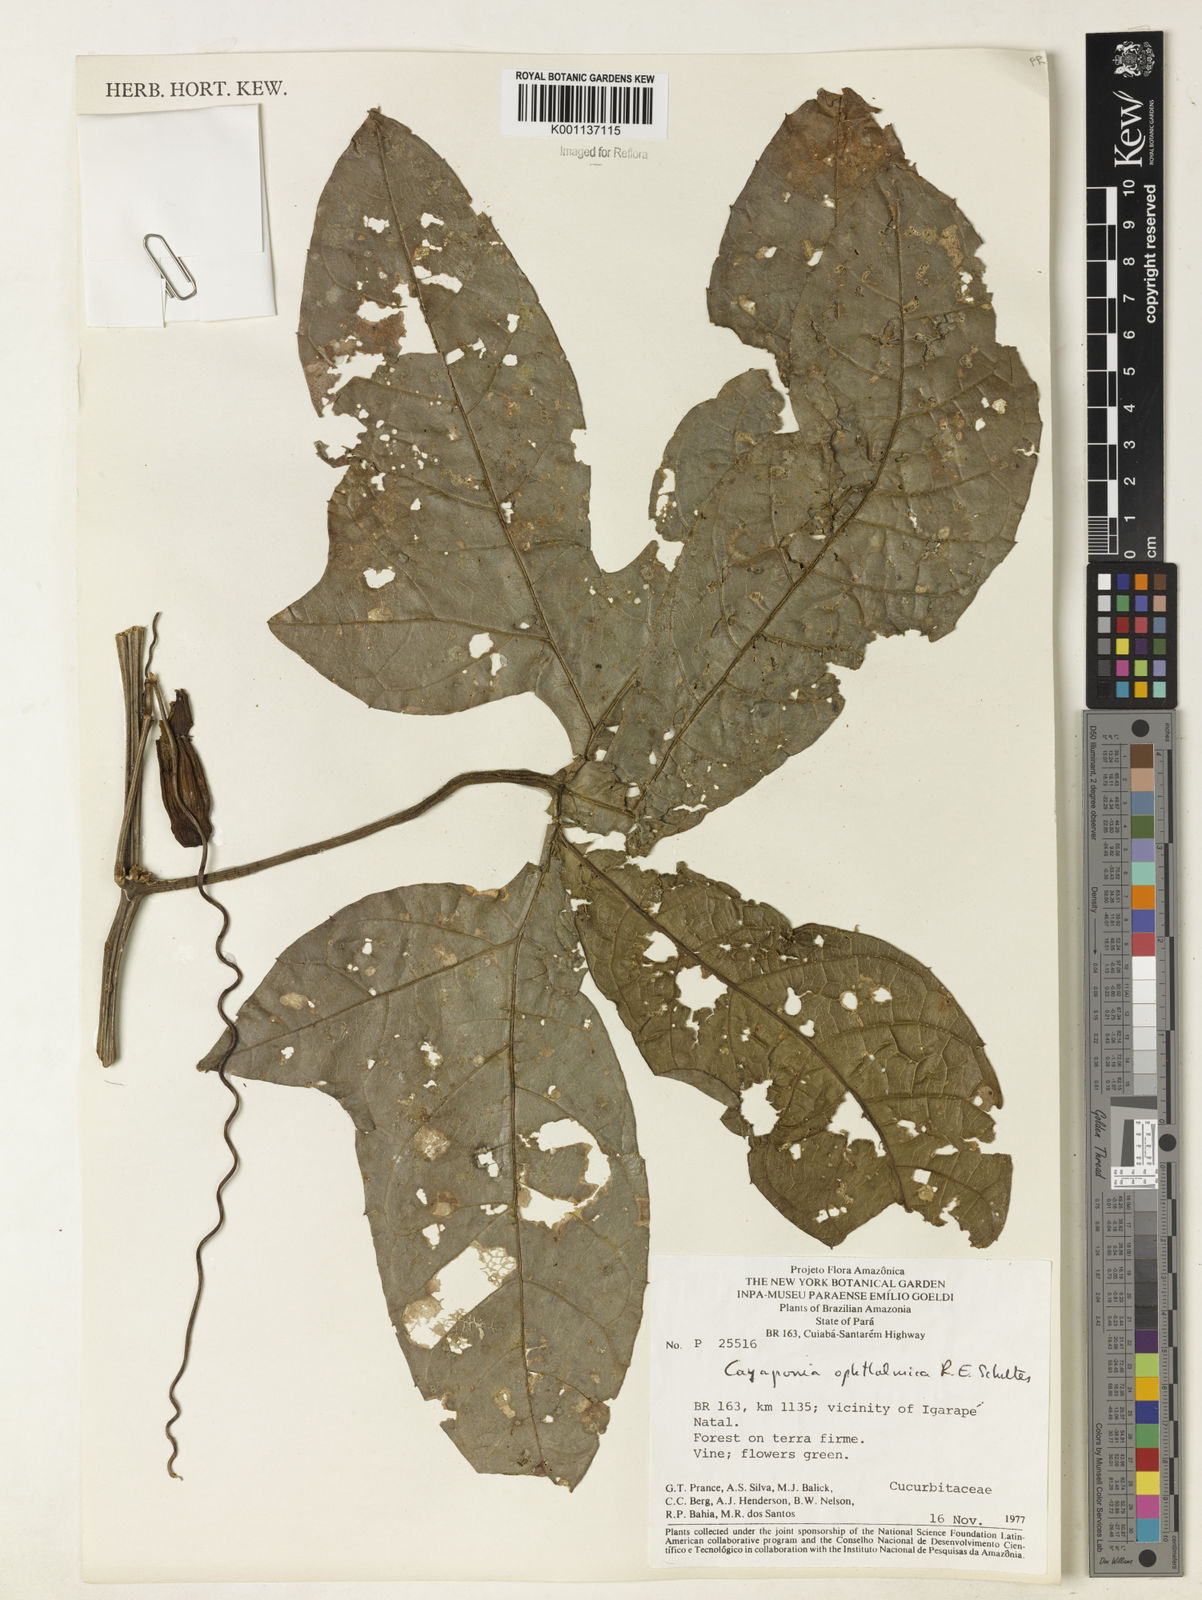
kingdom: Plantae
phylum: Tracheophyta
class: Magnoliopsida
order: Cucurbitales
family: Cucurbitaceae
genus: Cayaponia
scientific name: Cayaponia ophthalmica
